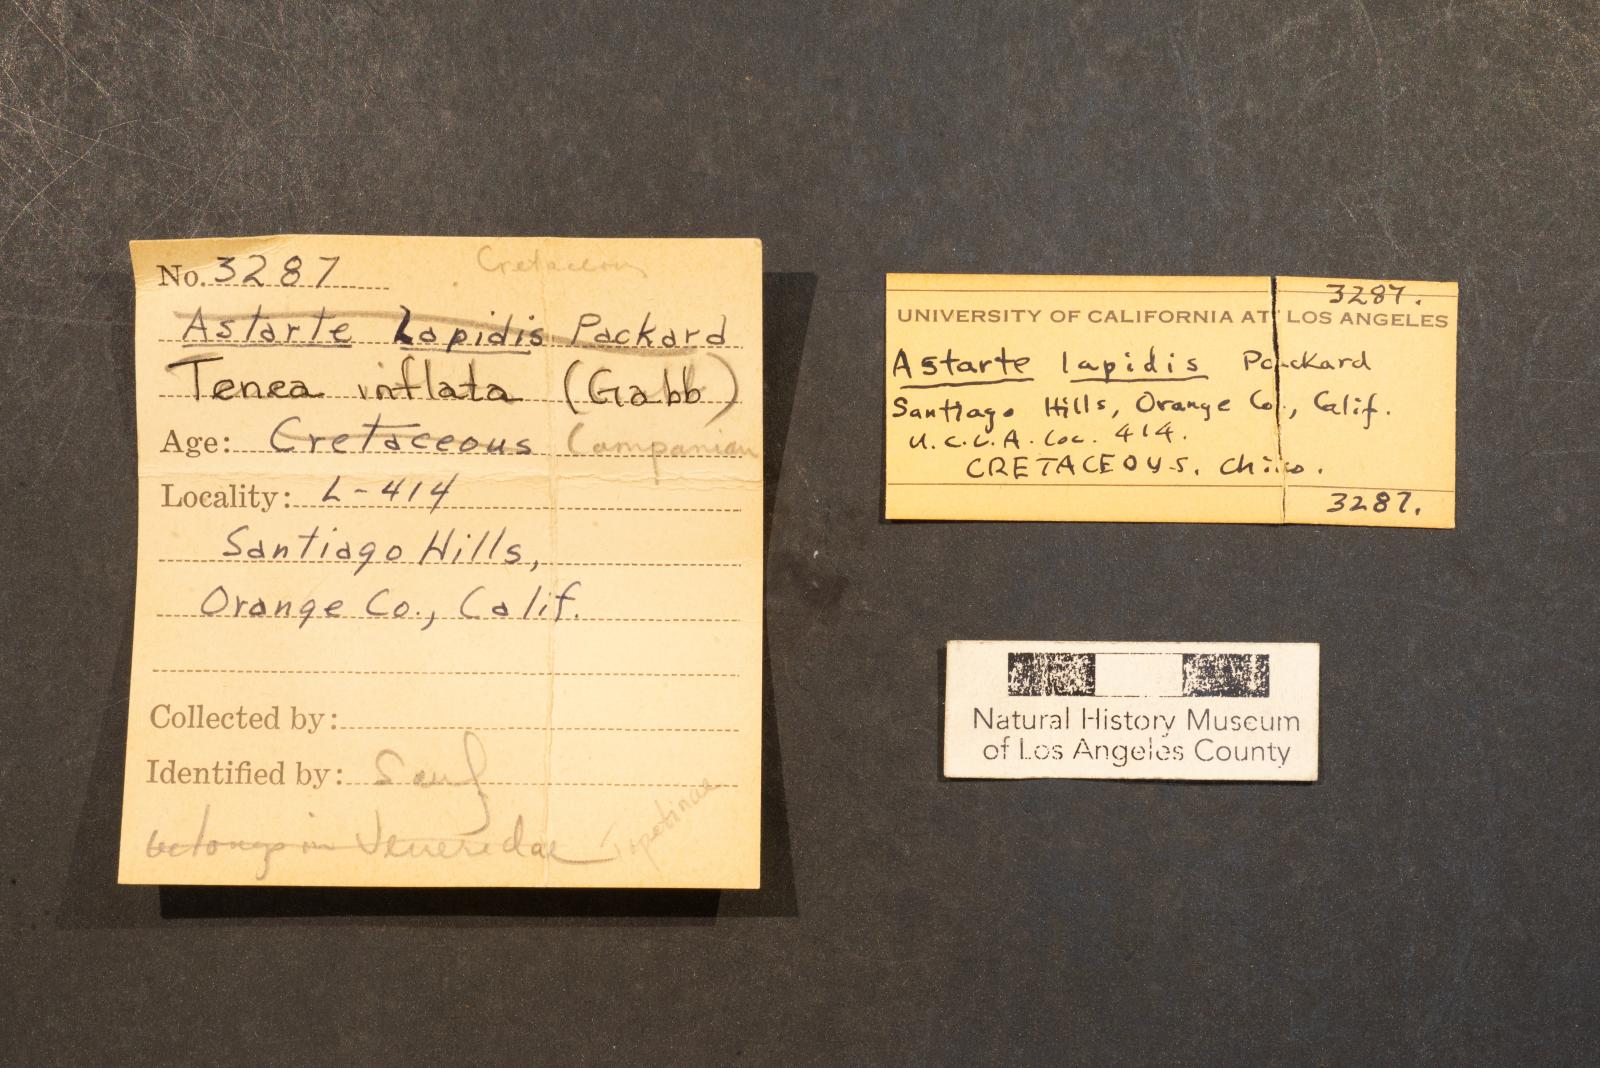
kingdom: Animalia
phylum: Mollusca
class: Bivalvia
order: Venerida
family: Veneridae
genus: Dosinia
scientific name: Dosinia lupinus
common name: Smooth artemis
